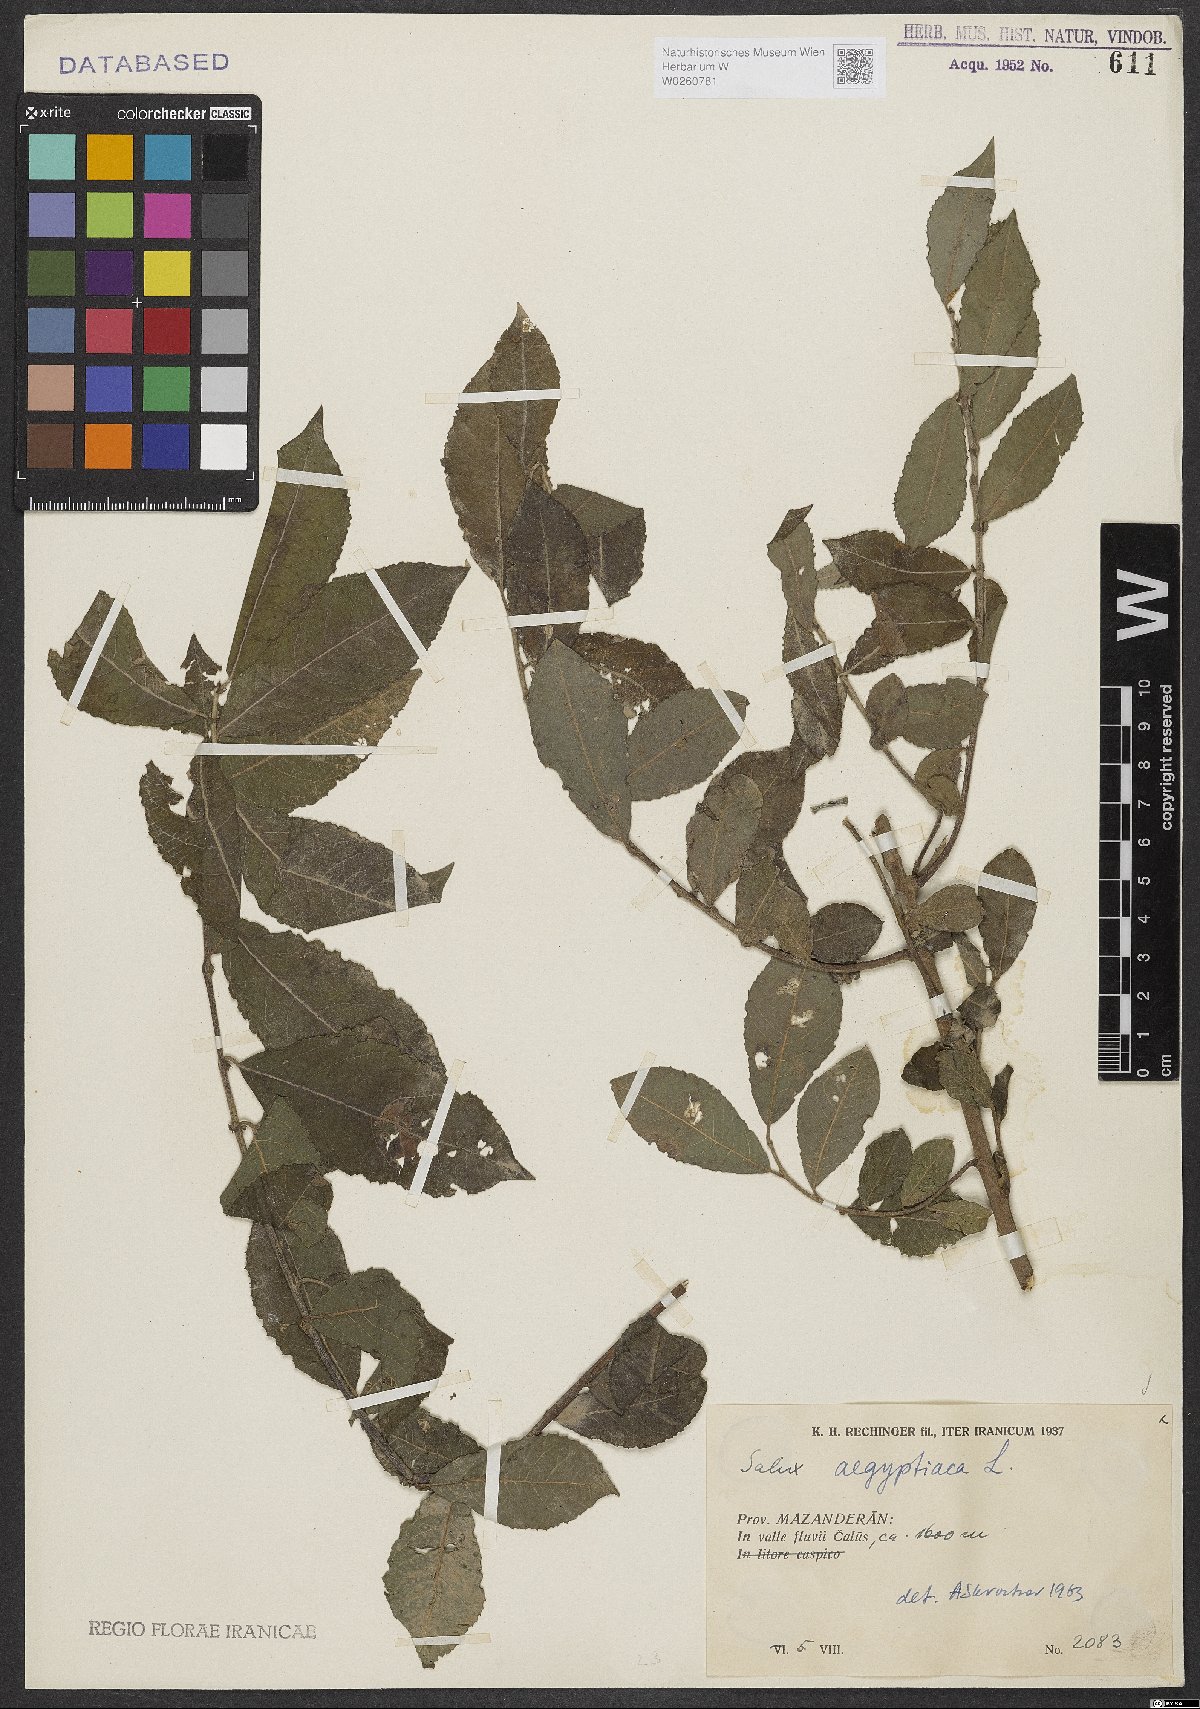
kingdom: Plantae
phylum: Tracheophyta
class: Magnoliopsida
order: Malpighiales
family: Salicaceae
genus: Salix
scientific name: Salix aegyptiaca
